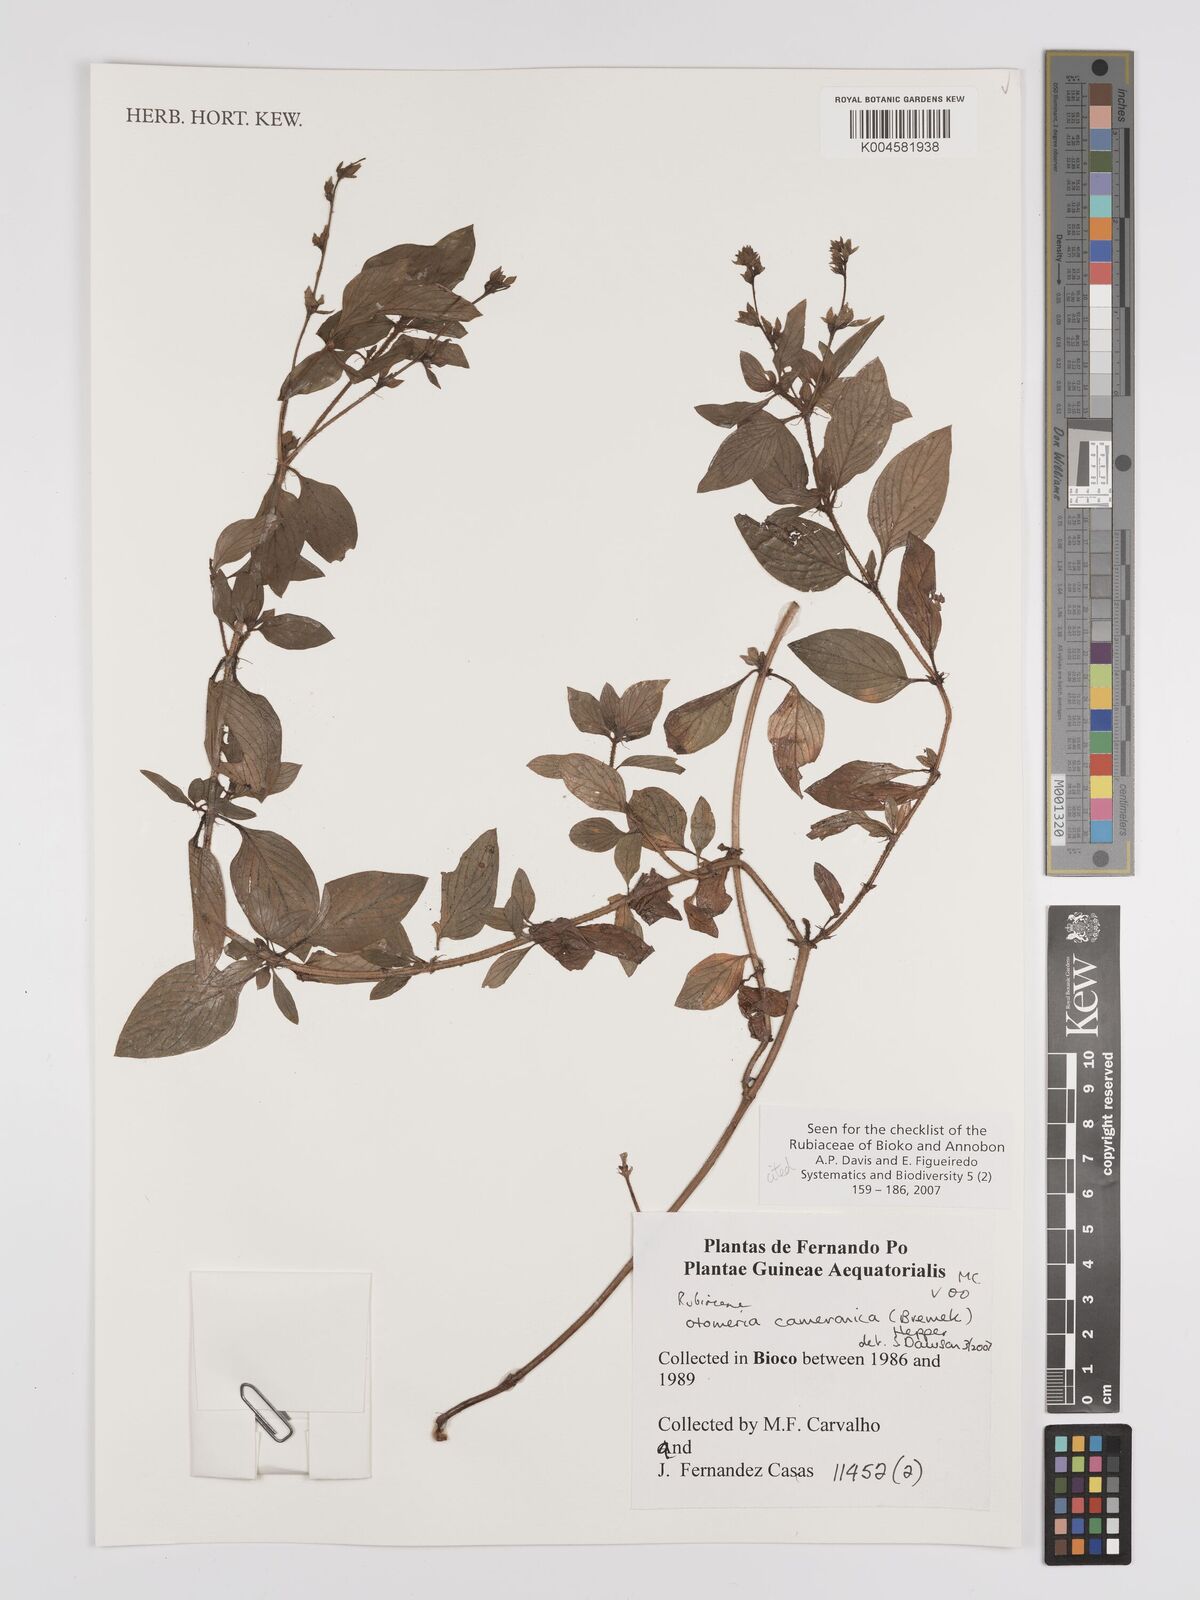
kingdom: Plantae
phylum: Tracheophyta
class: Magnoliopsida
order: Gentianales
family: Rubiaceae
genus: Otomeria
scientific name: Otomeria cameronica
